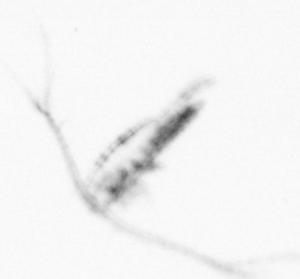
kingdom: Animalia
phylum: Arthropoda
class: Copepoda
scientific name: Copepoda
